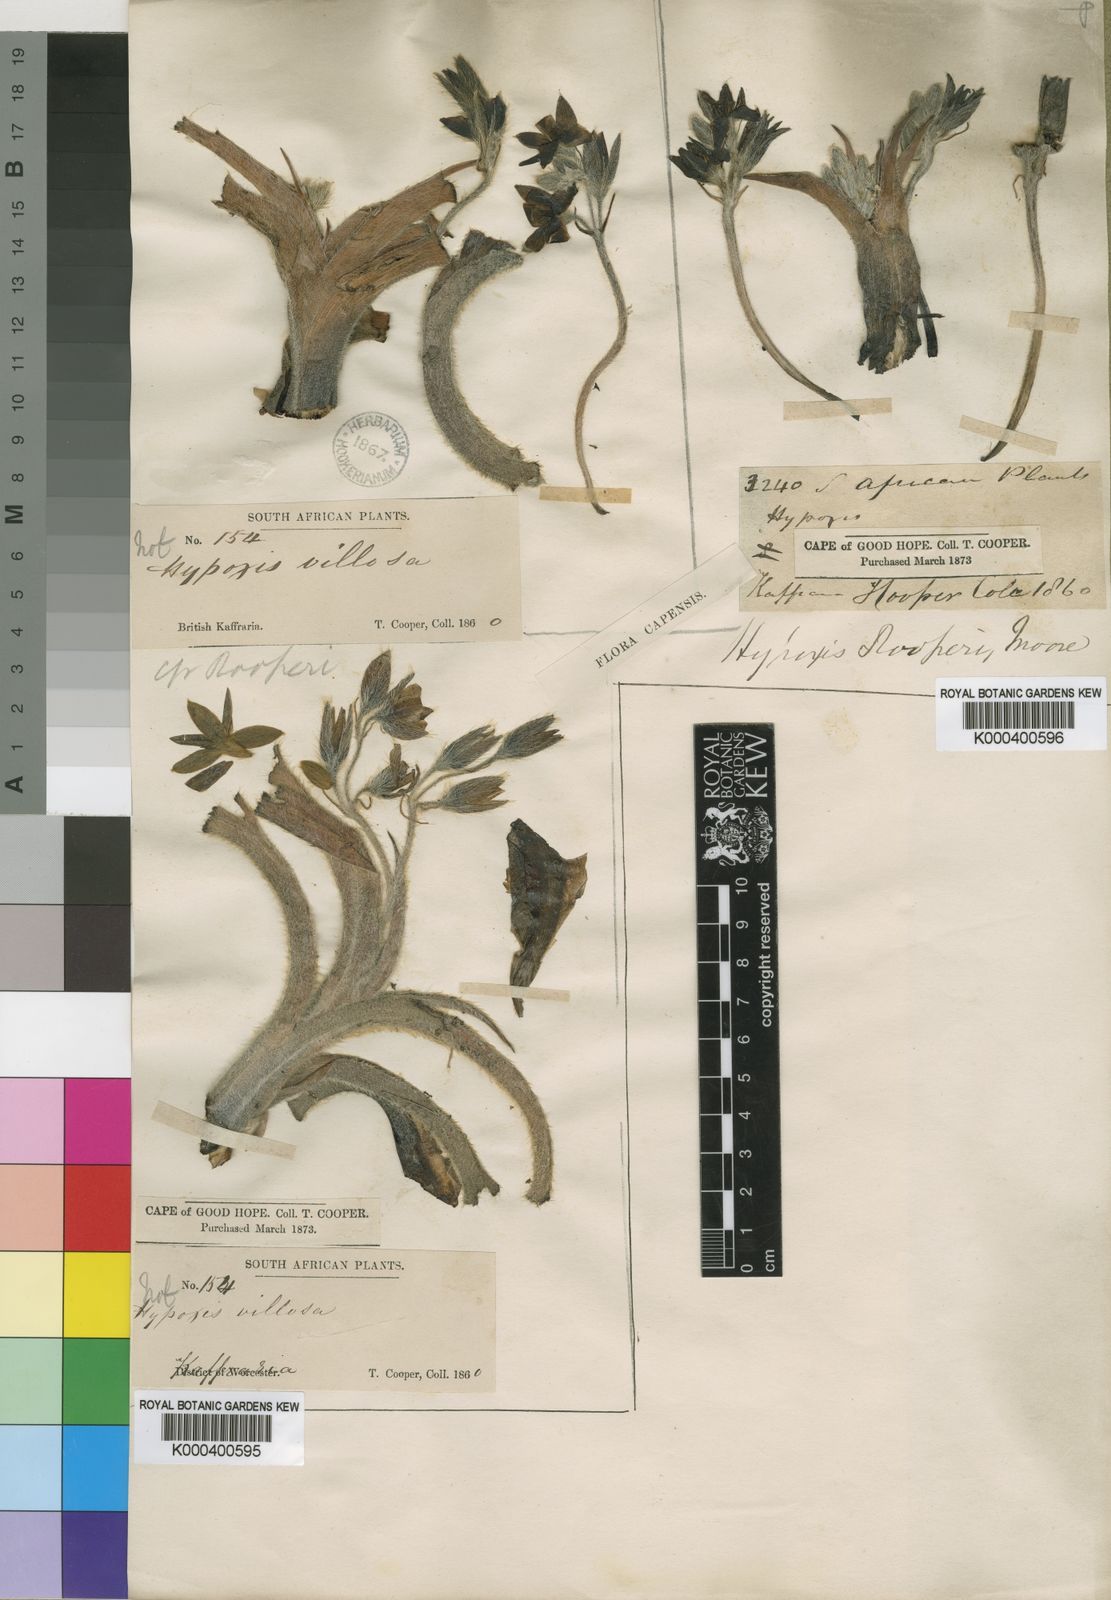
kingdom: Plantae
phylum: Tracheophyta
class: Liliopsida
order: Asparagales
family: Hypoxidaceae
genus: Hypoxis
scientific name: Hypoxis hemerocallidea
